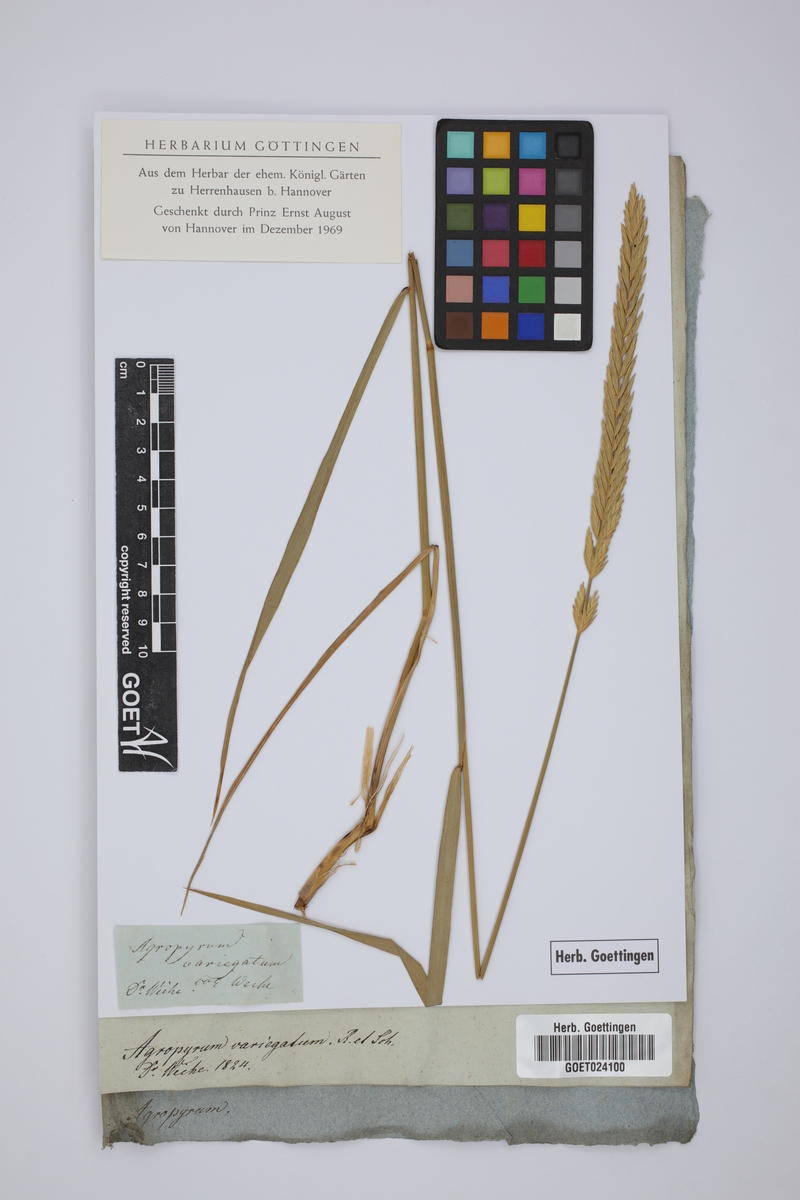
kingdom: Plantae
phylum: Tracheophyta
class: Liliopsida
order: Poales
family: Poaceae
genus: Agropyron
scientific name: Agropyron fragile
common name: Siberian wheatgrass
